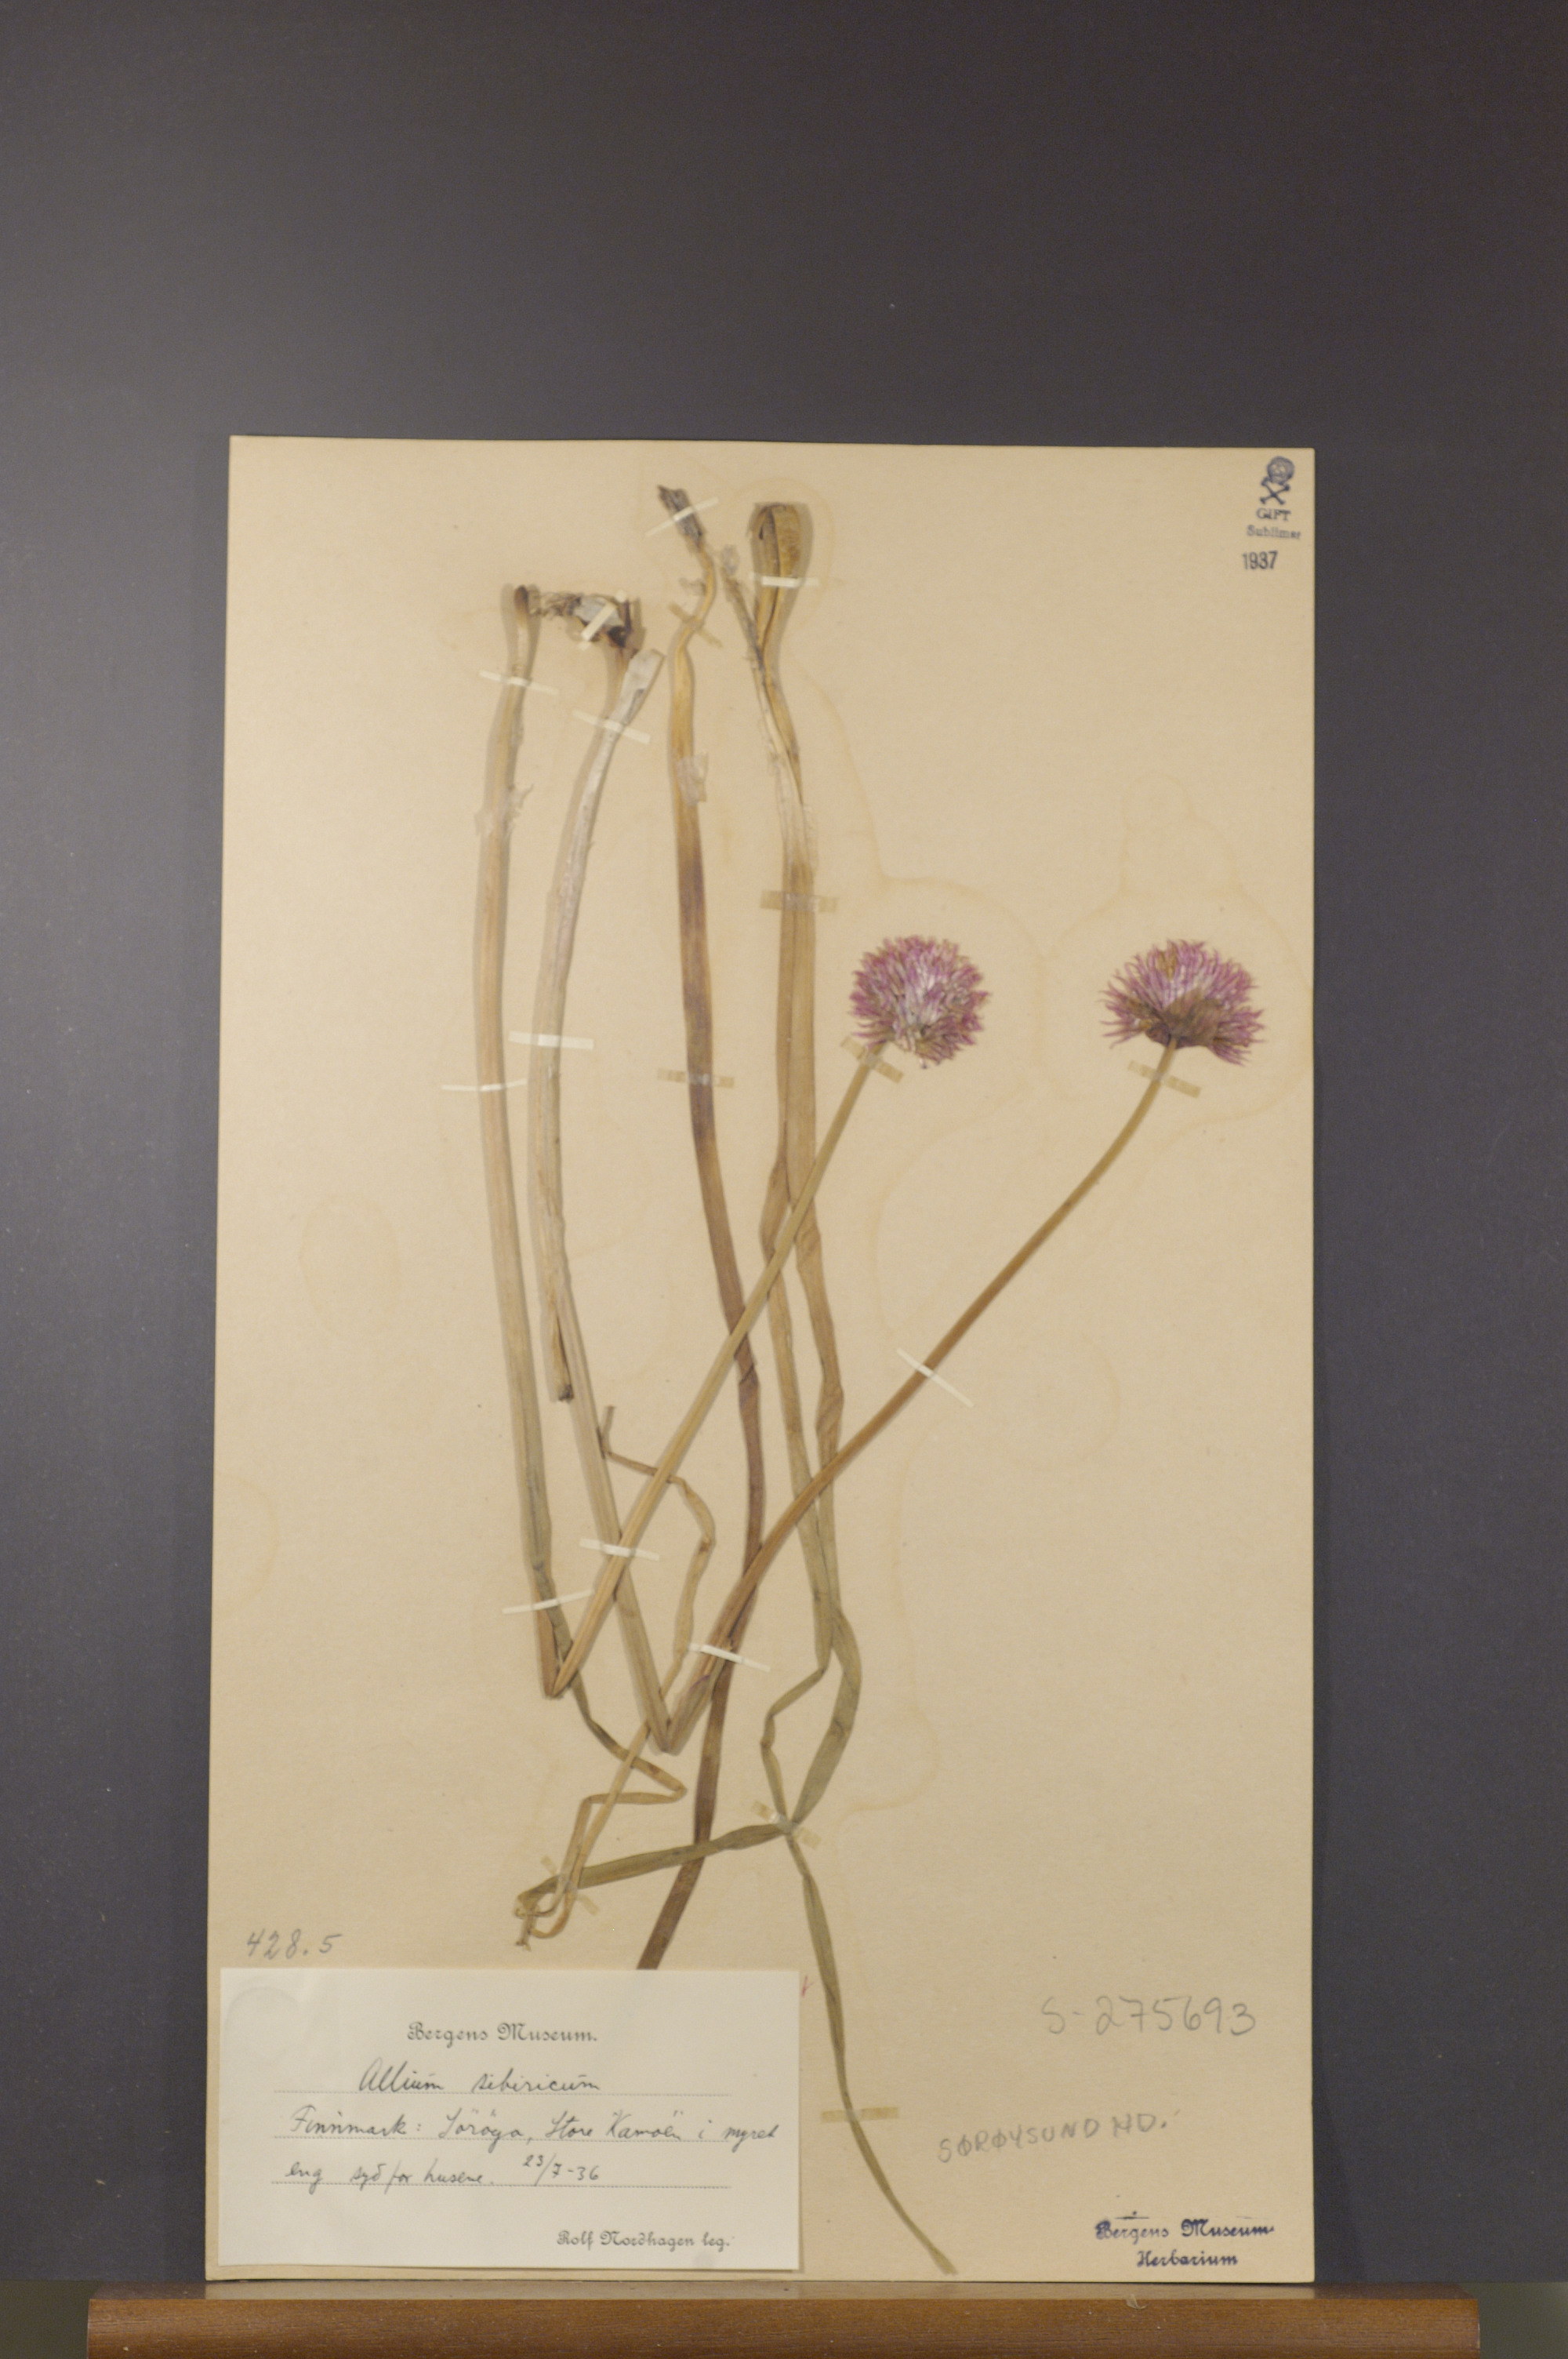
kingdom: Plantae
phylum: Tracheophyta
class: Liliopsida
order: Asparagales
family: Amaryllidaceae
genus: Allium
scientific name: Allium schoenoprasum
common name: Chives
